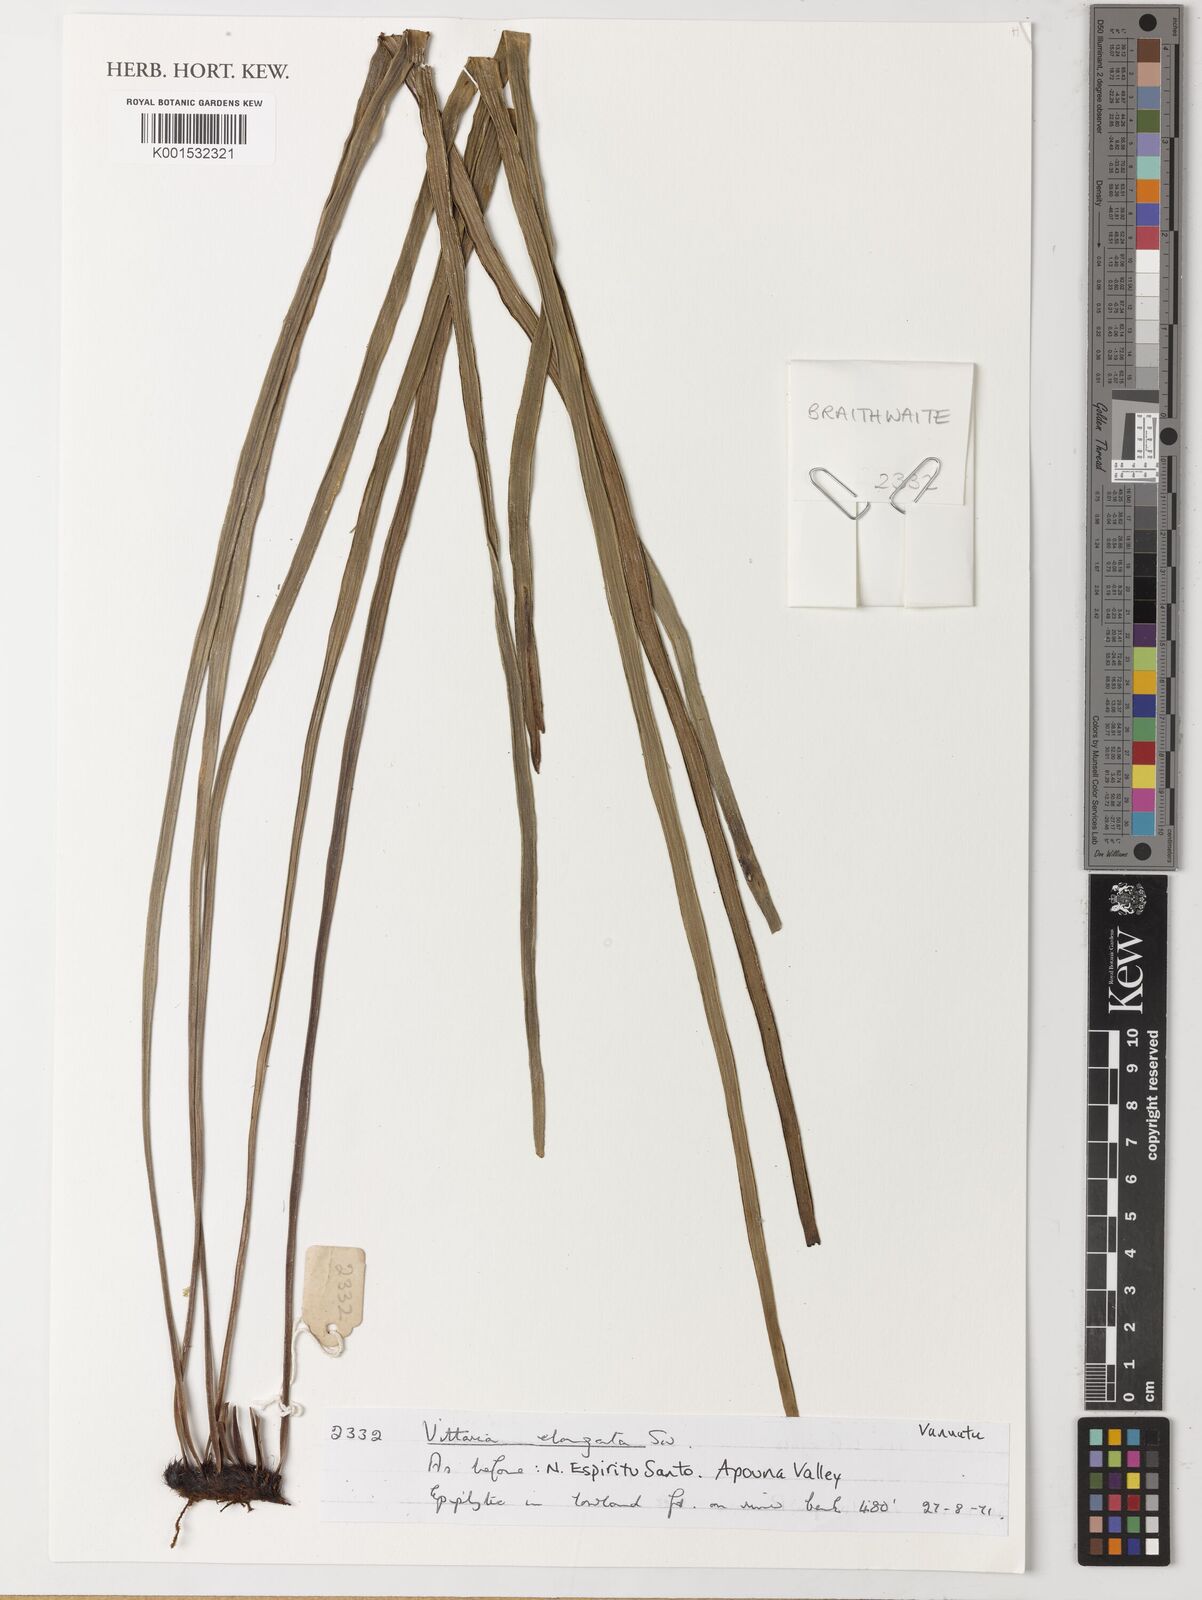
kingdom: Plantae
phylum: Tracheophyta
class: Polypodiopsida
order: Polypodiales
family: Pteridaceae
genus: Haplopteris
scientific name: Haplopteris elongata
